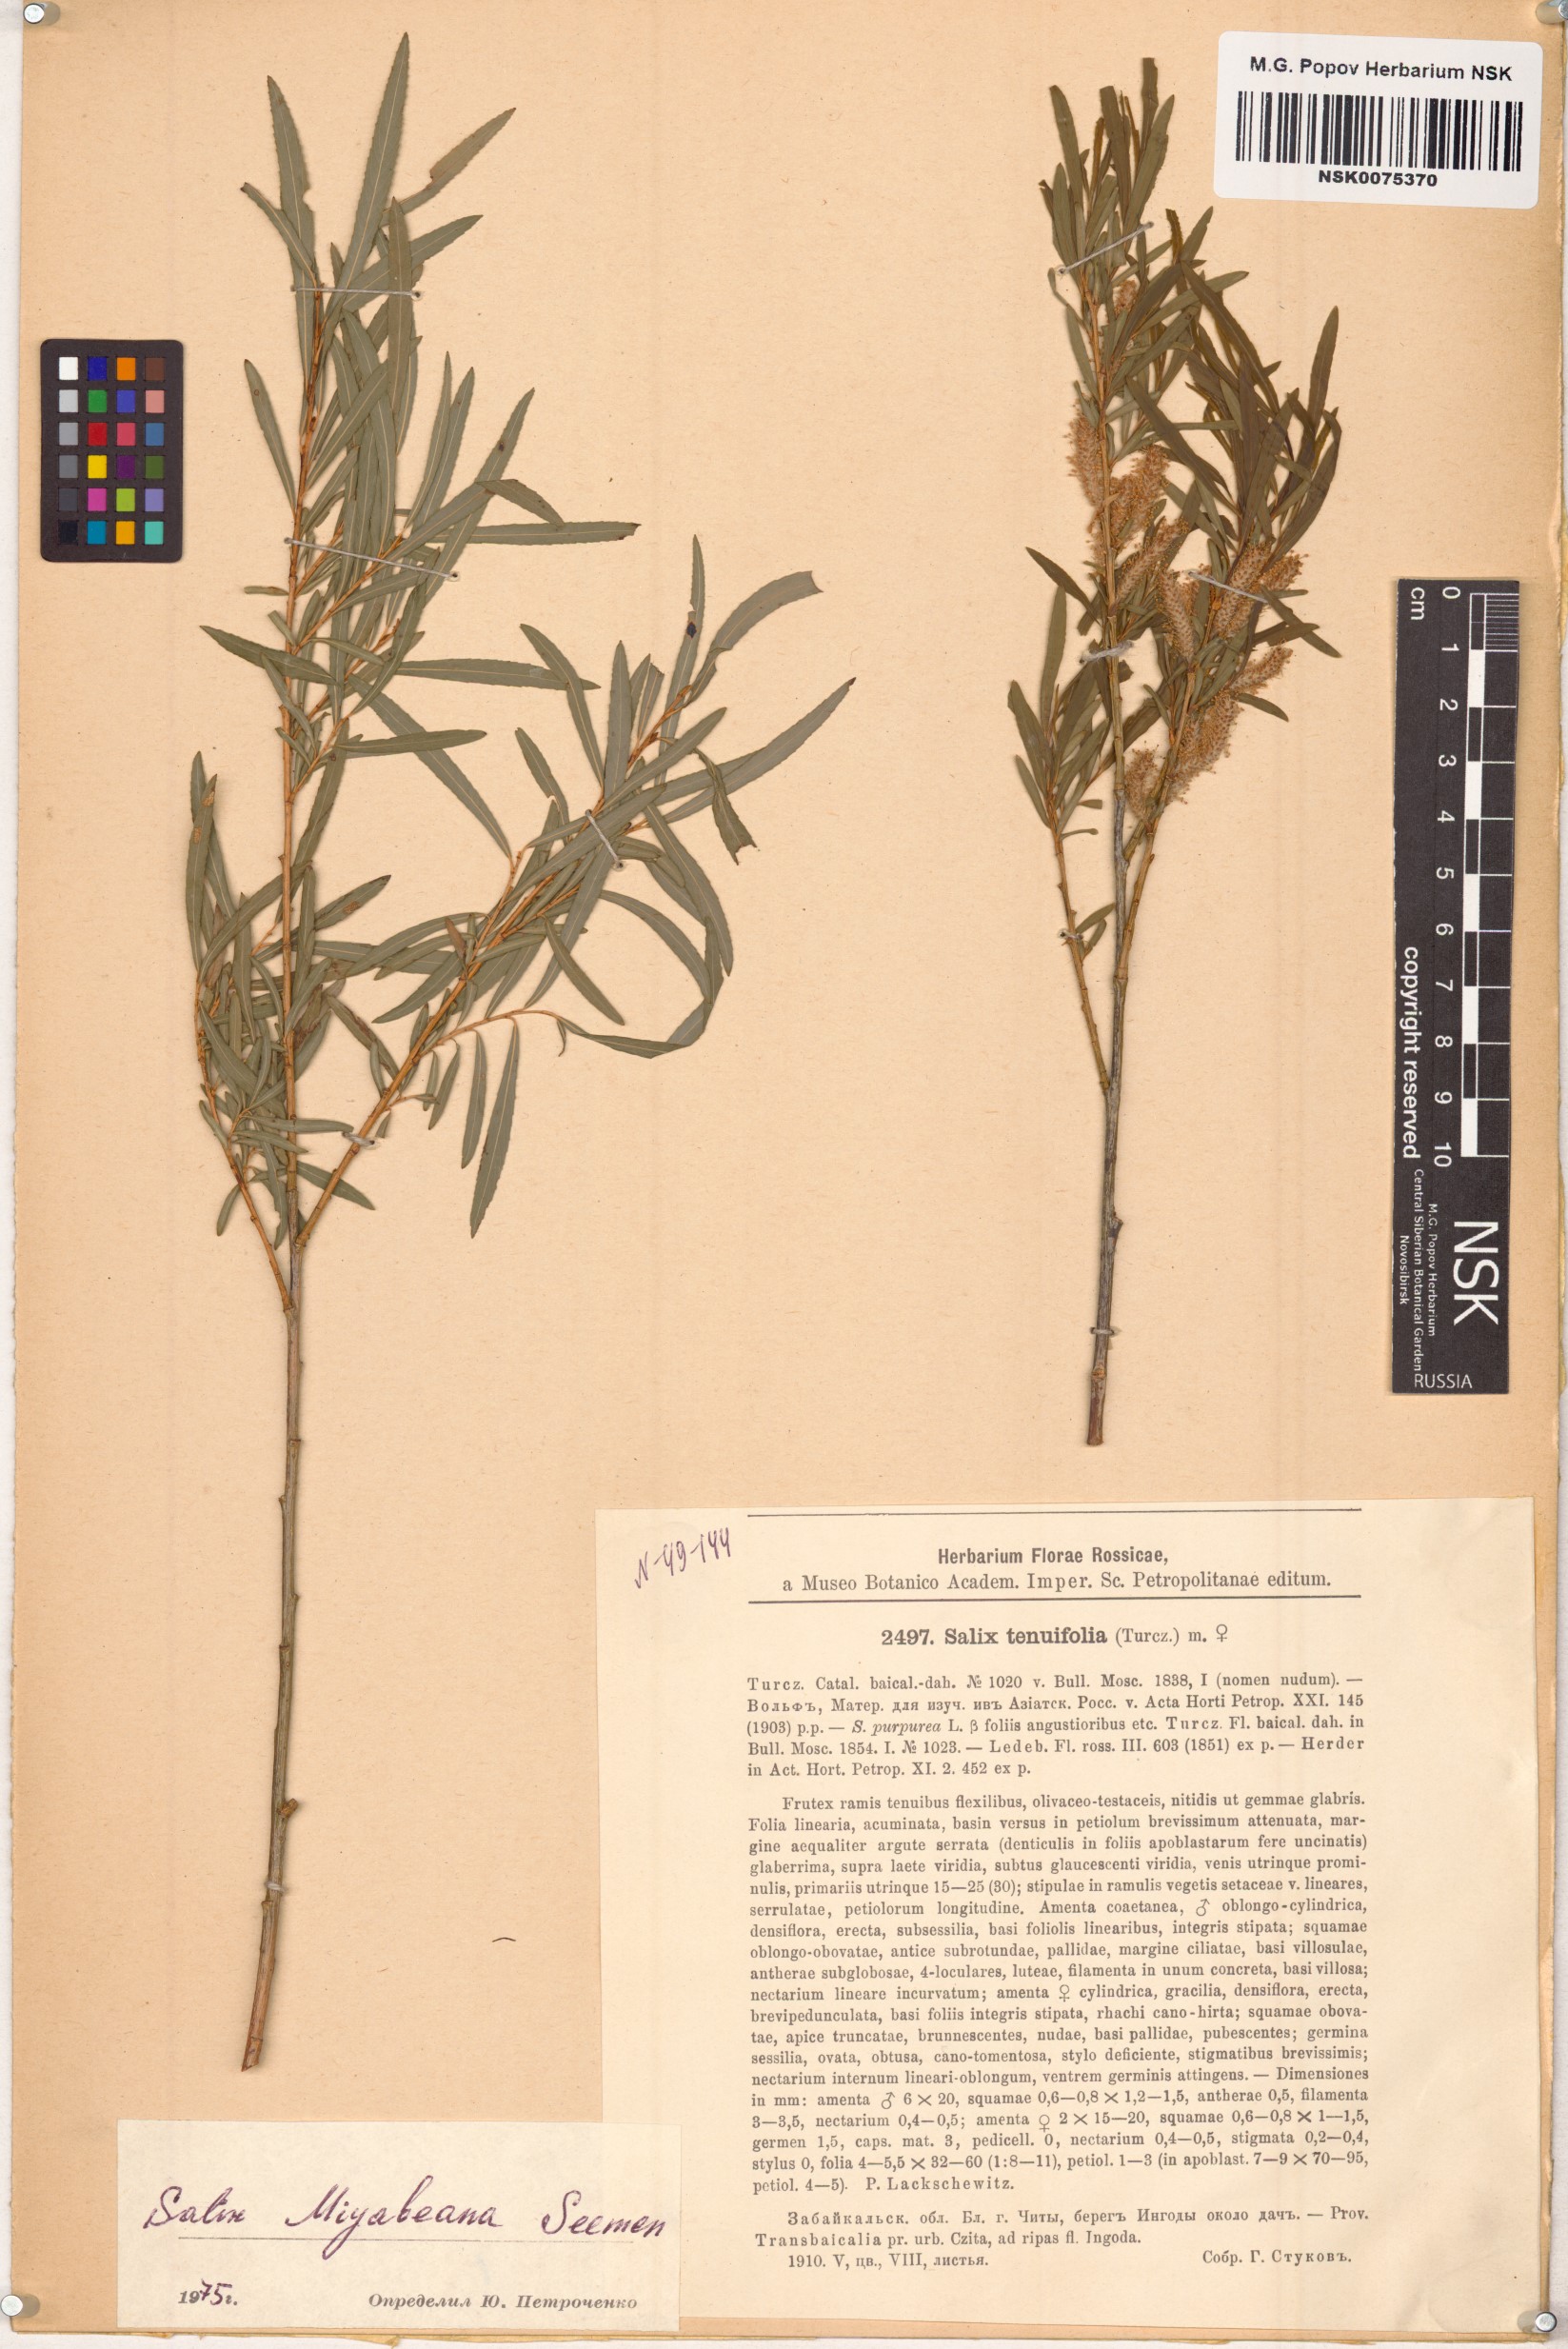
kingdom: Plantae
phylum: Tracheophyta
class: Magnoliopsida
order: Malpighiales
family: Salicaceae
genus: Salix
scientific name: Salix miyabeana
